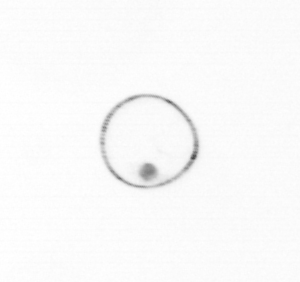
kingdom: Chromista
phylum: Myzozoa
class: Dinophyceae
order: Noctilucales
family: Noctilucaceae
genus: Noctiluca
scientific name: Noctiluca scintillans
